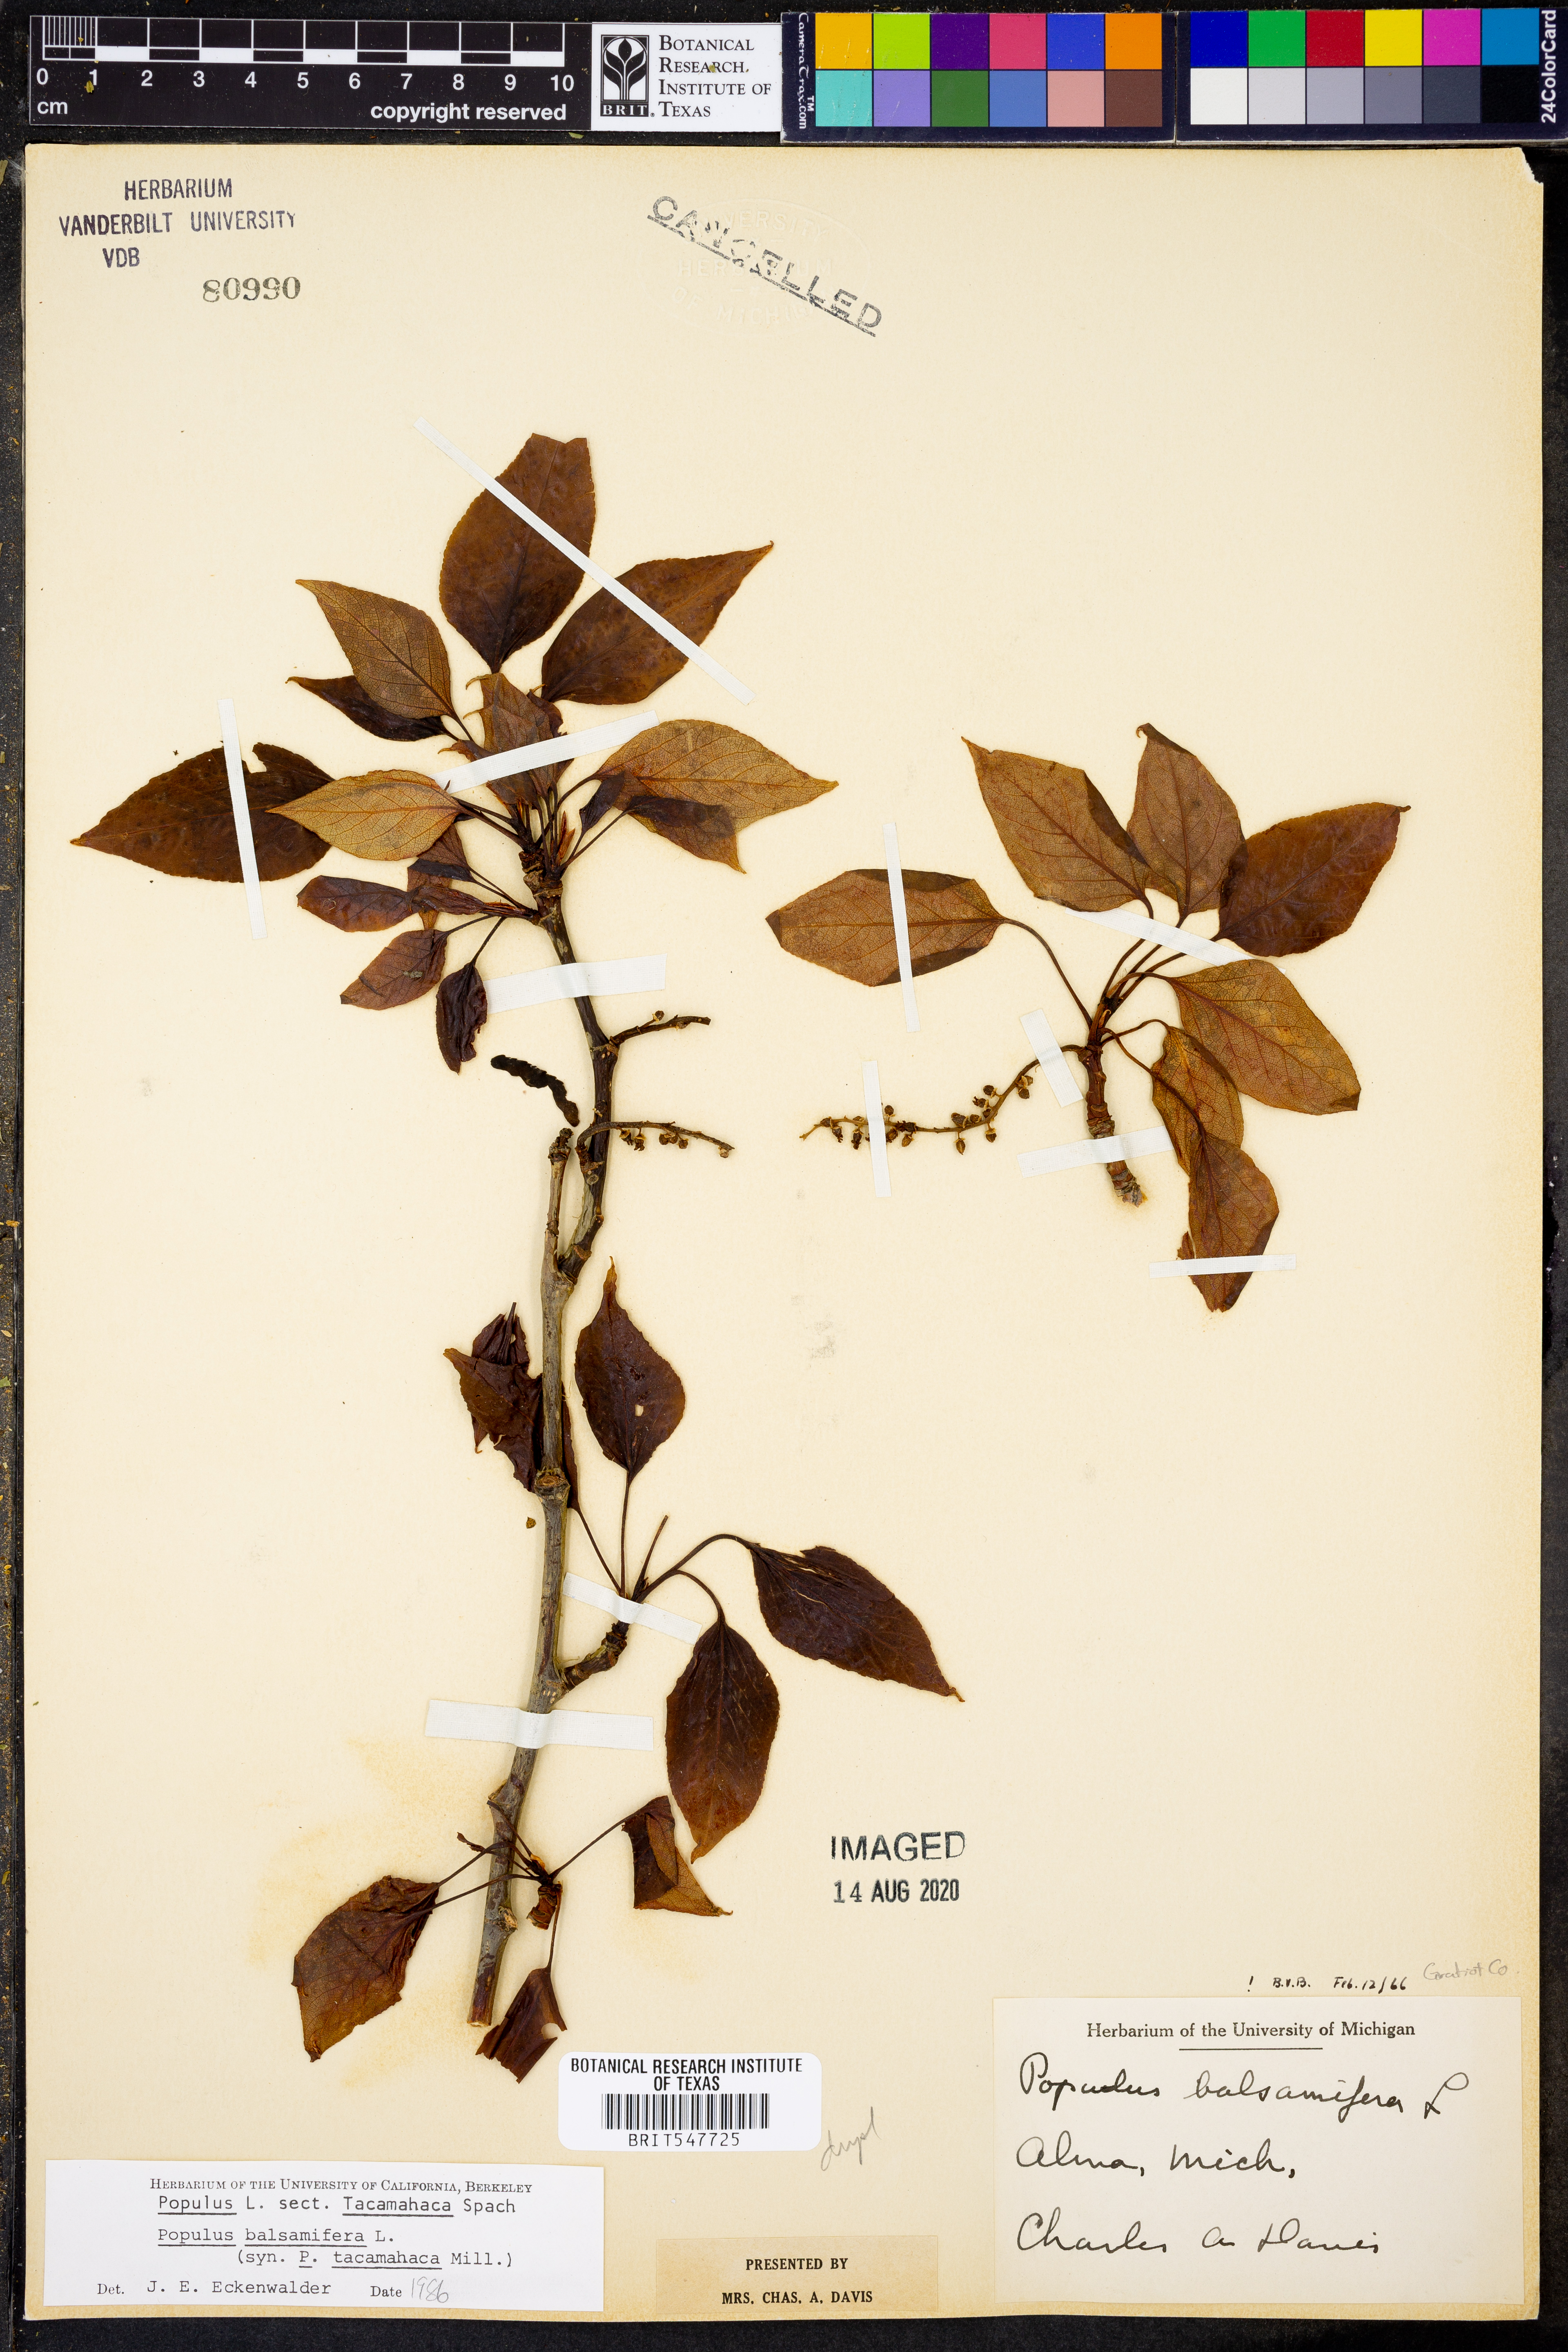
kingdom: Plantae
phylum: Tracheophyta
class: Magnoliopsida
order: Malpighiales
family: Salicaceae
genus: Populus
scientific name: Populus balsamifera
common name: Balsam poplar
